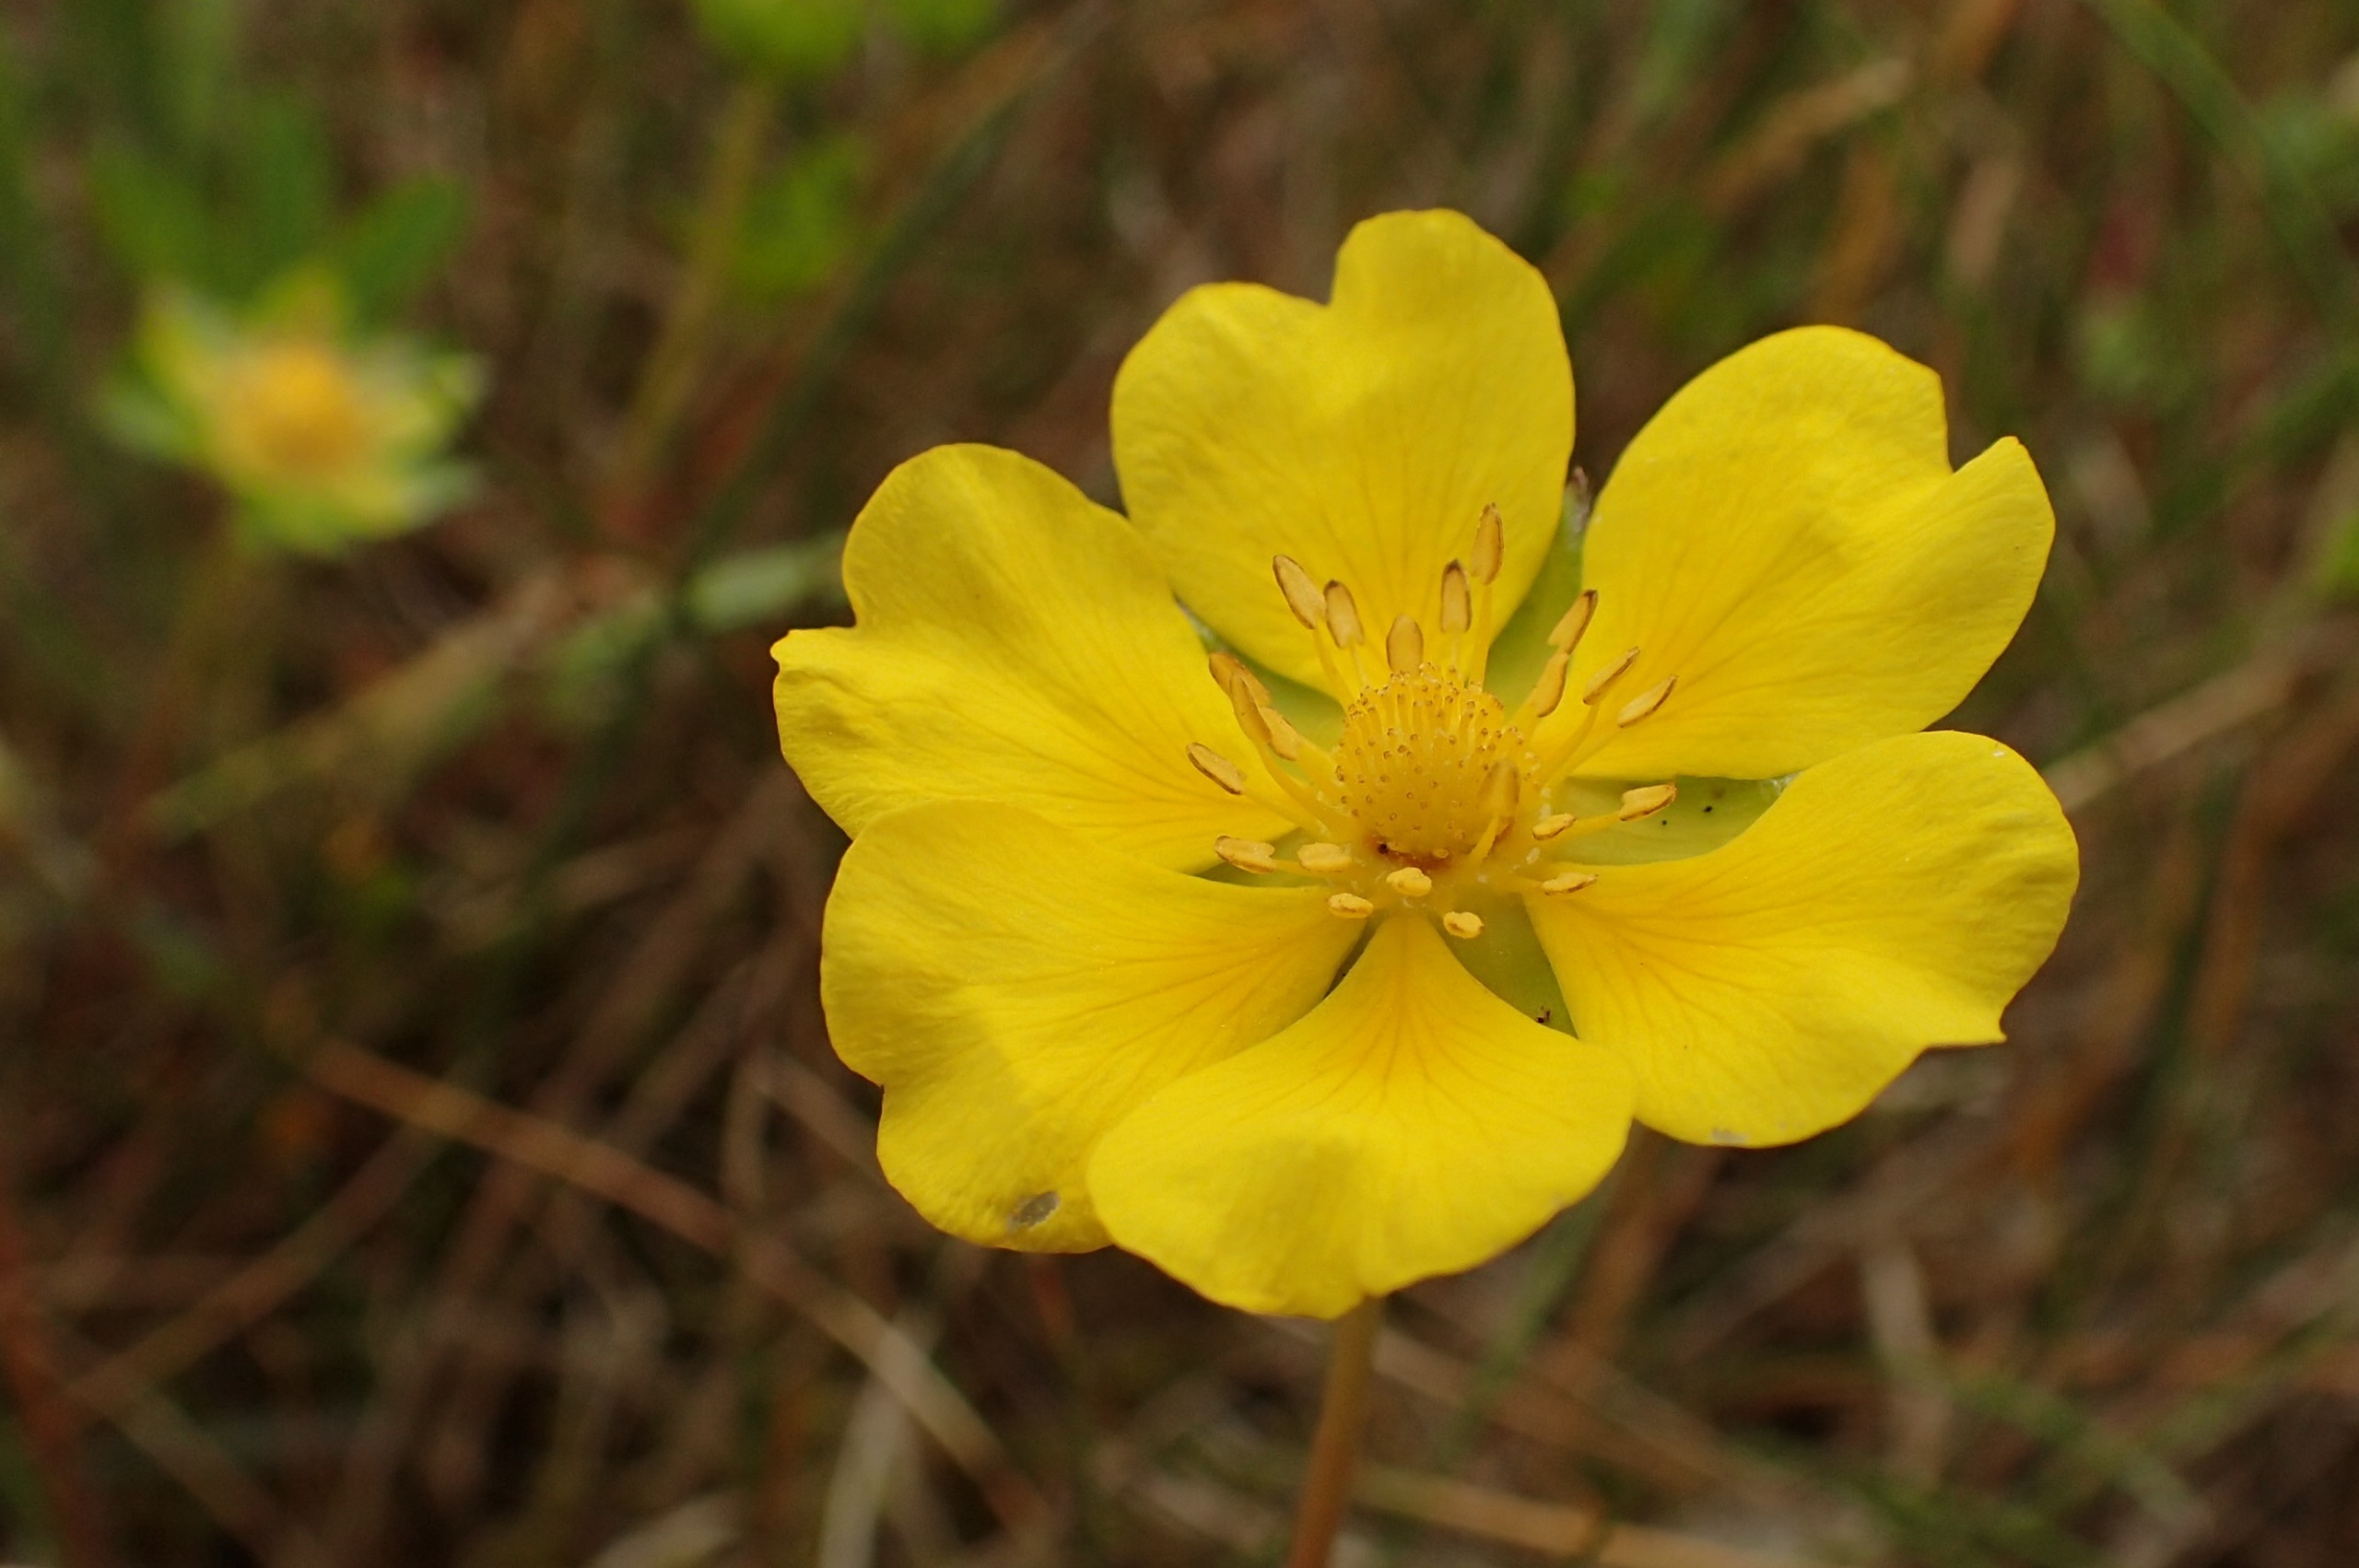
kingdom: Plantae
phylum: Tracheophyta
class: Magnoliopsida
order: Rosales
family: Rosaceae
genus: Potentilla
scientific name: Potentilla reptans
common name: Krybende potentil
